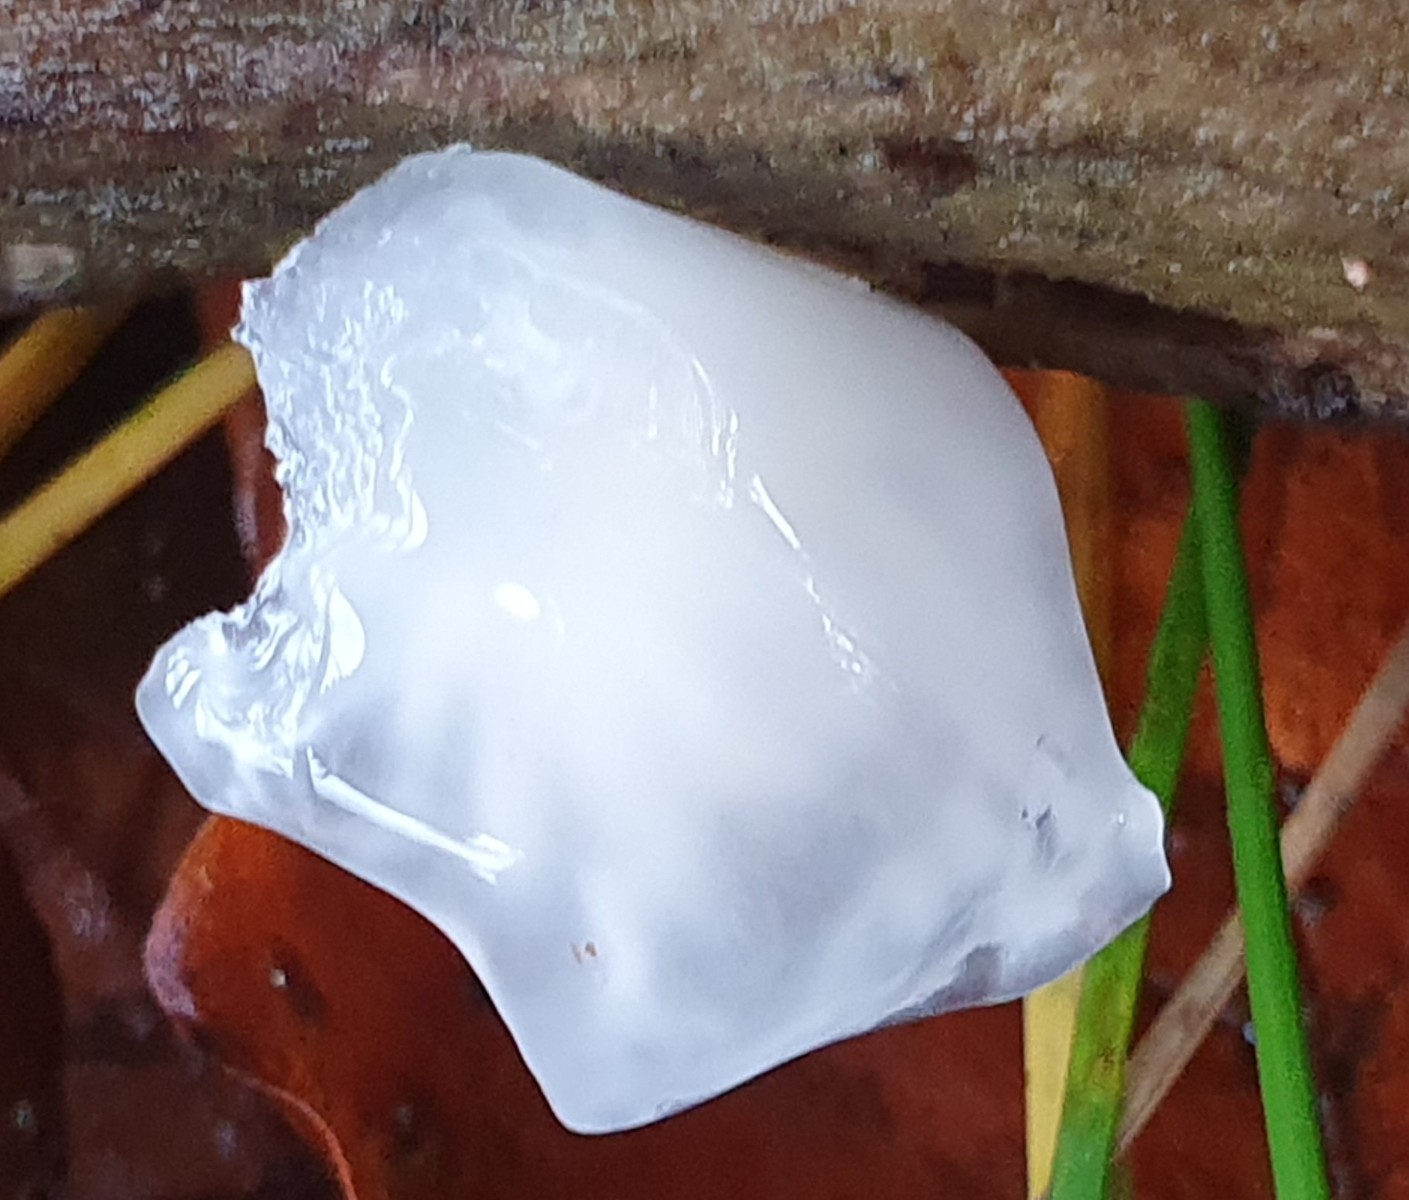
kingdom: Fungi
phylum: Basidiomycota
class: Agaricomycetes
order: Agaricales
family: Physalacriaceae
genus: Mucidula
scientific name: Mucidula mucida
